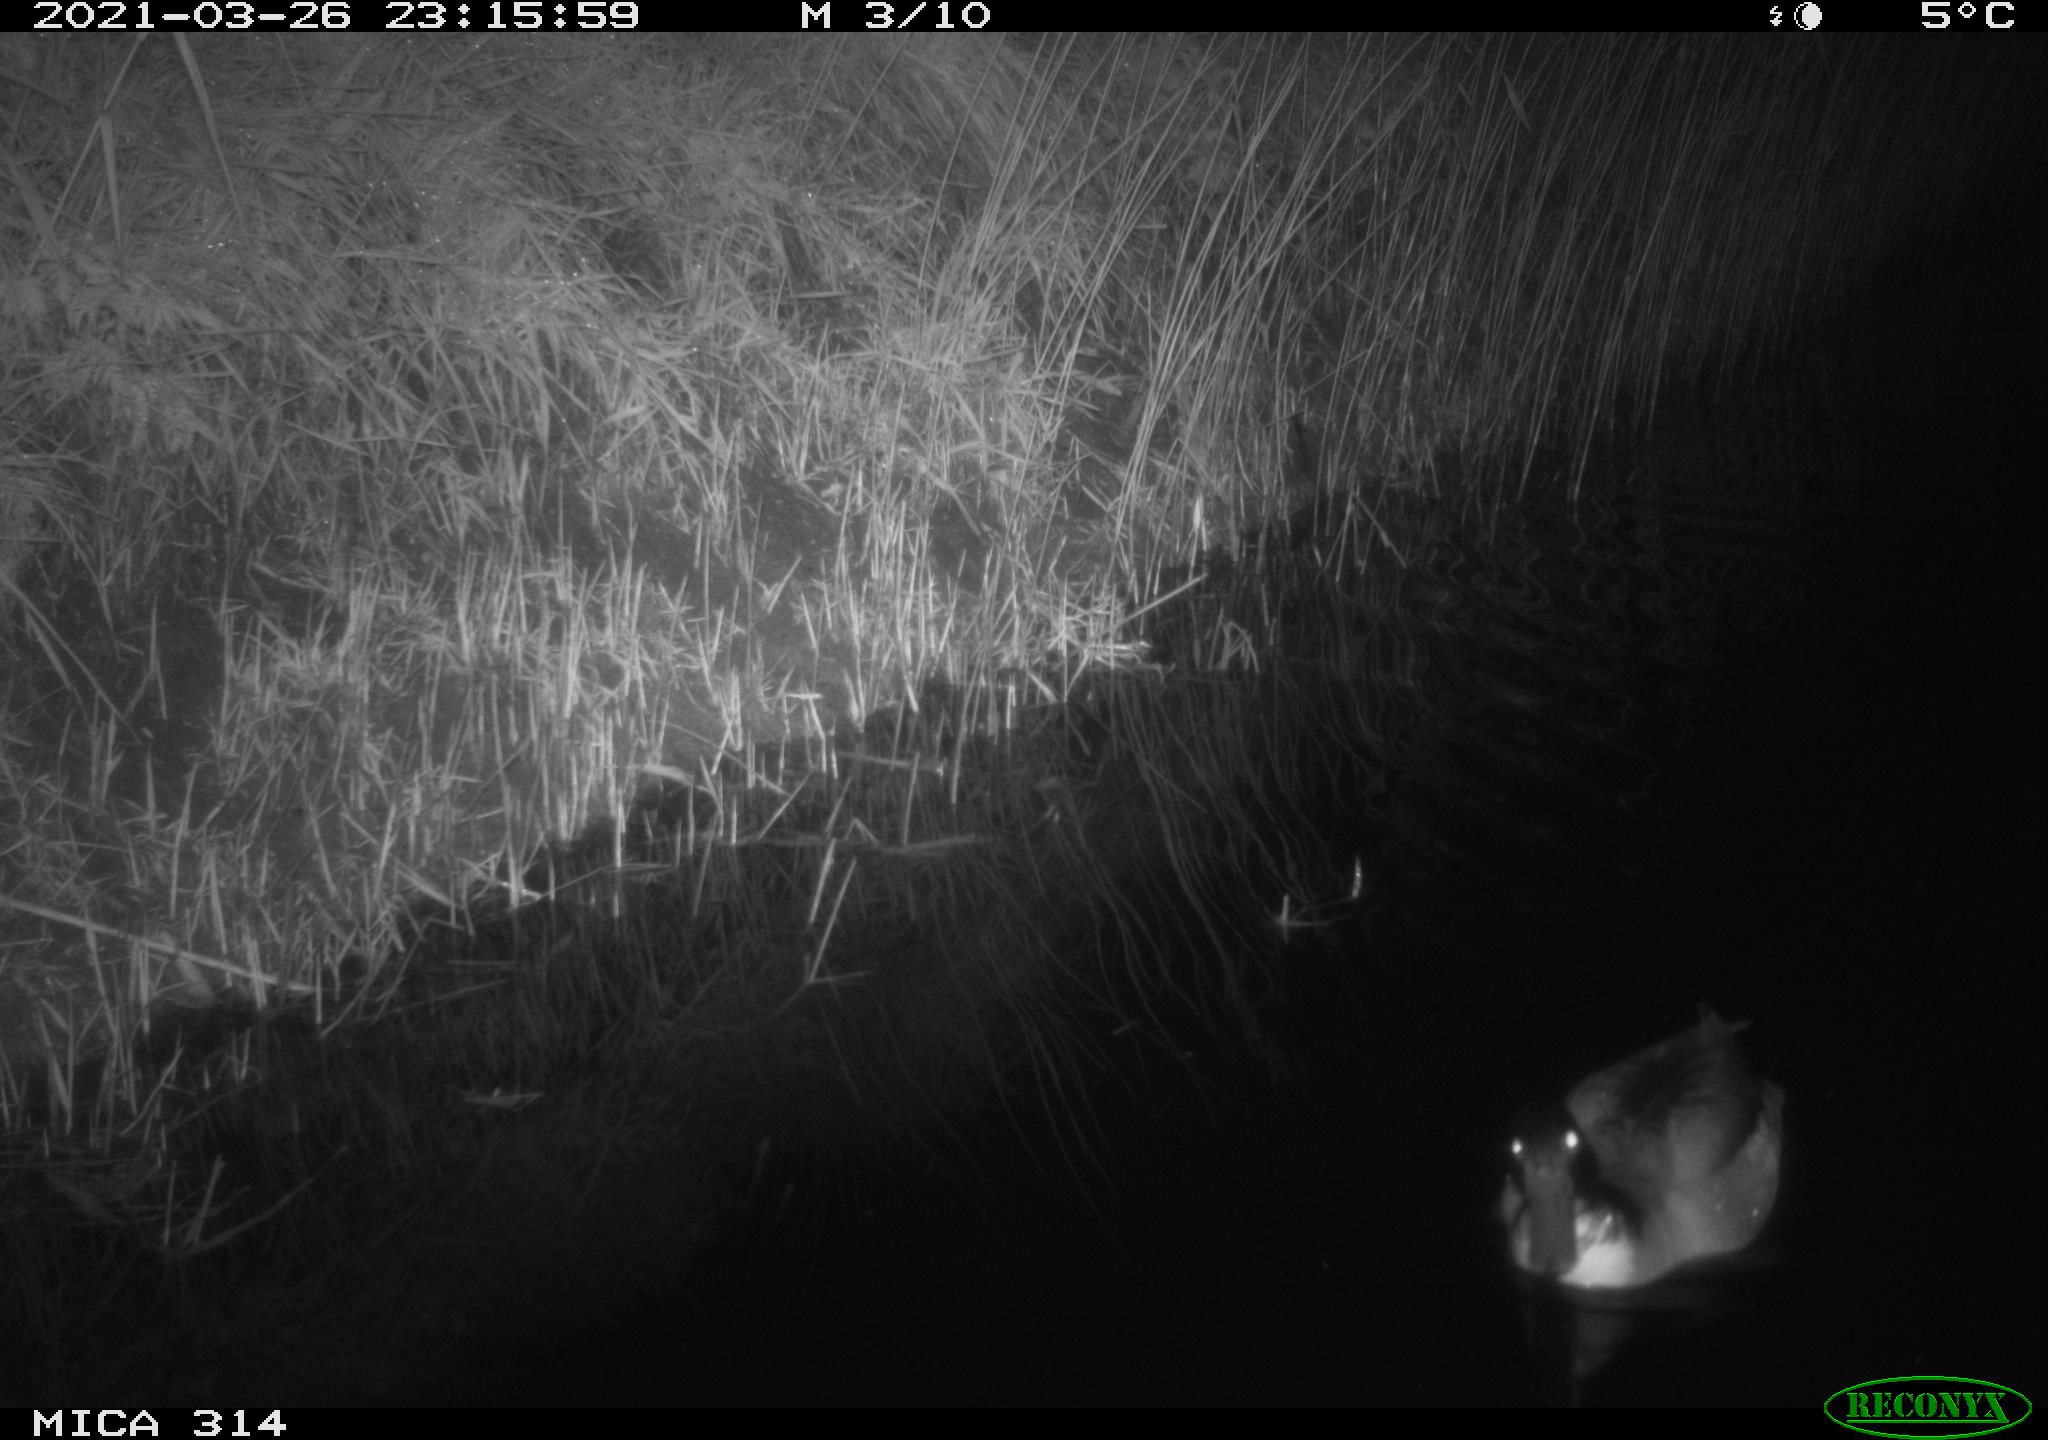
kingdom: Animalia
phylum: Chordata
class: Aves
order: Anseriformes
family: Anatidae
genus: Anas
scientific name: Anas platyrhynchos
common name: Mallard
